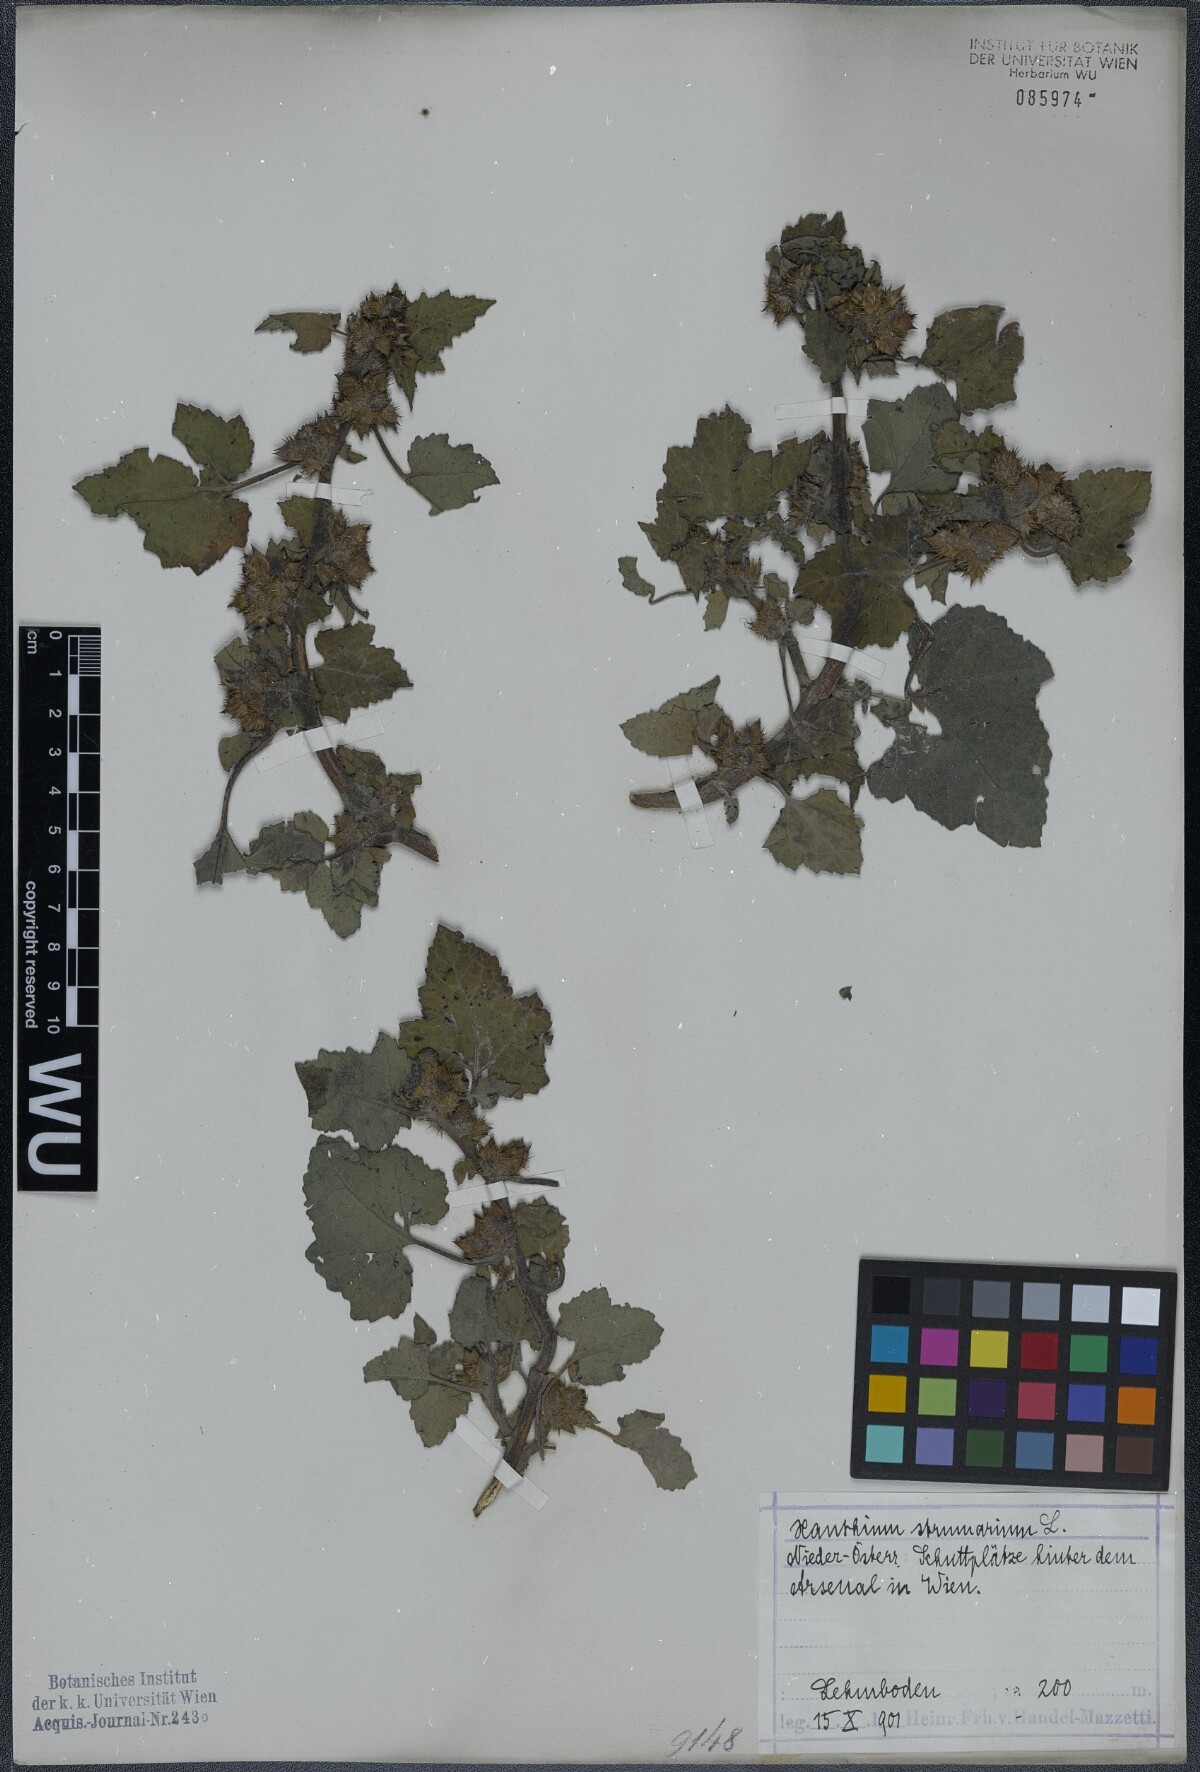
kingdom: Plantae
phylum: Tracheophyta
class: Magnoliopsida
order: Asterales
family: Asteraceae
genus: Xanthium
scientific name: Xanthium strumarium
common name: Rough cocklebur
